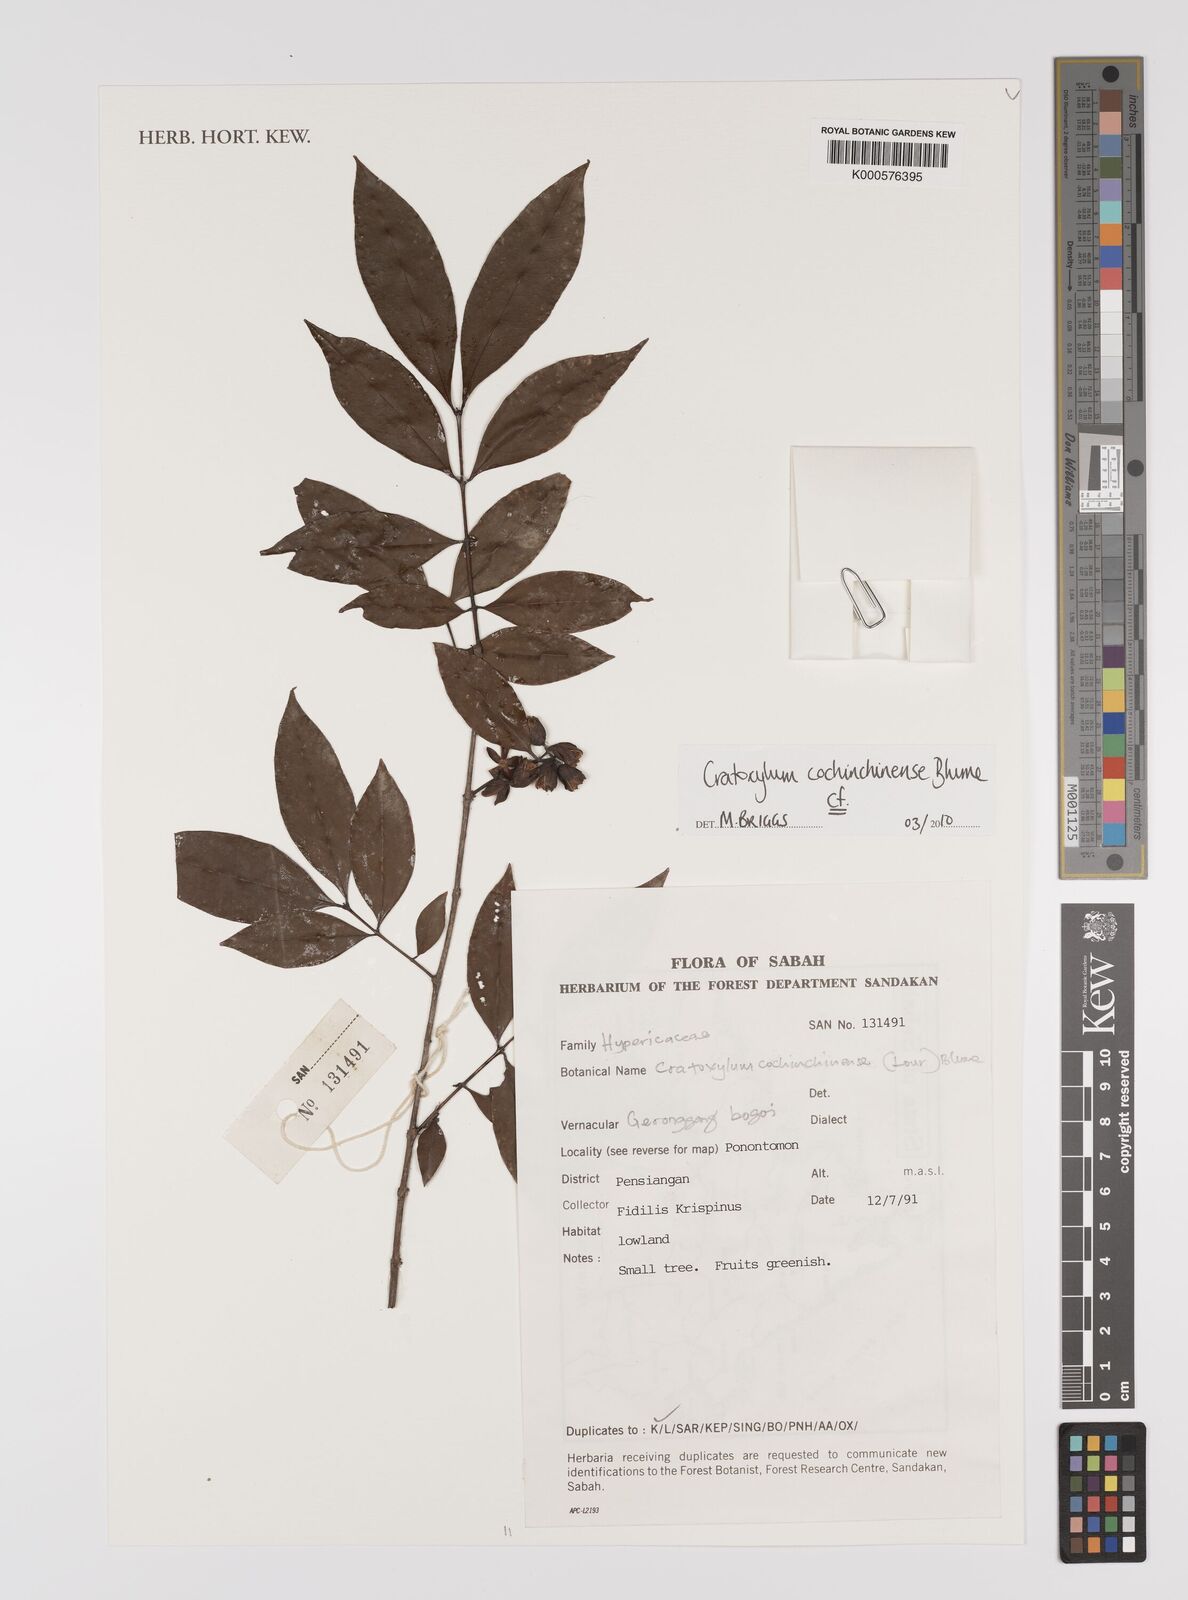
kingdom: Plantae
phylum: Tracheophyta
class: Magnoliopsida
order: Malpighiales
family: Hypericaceae
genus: Cratoxylum
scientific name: Cratoxylum cochinchinense
